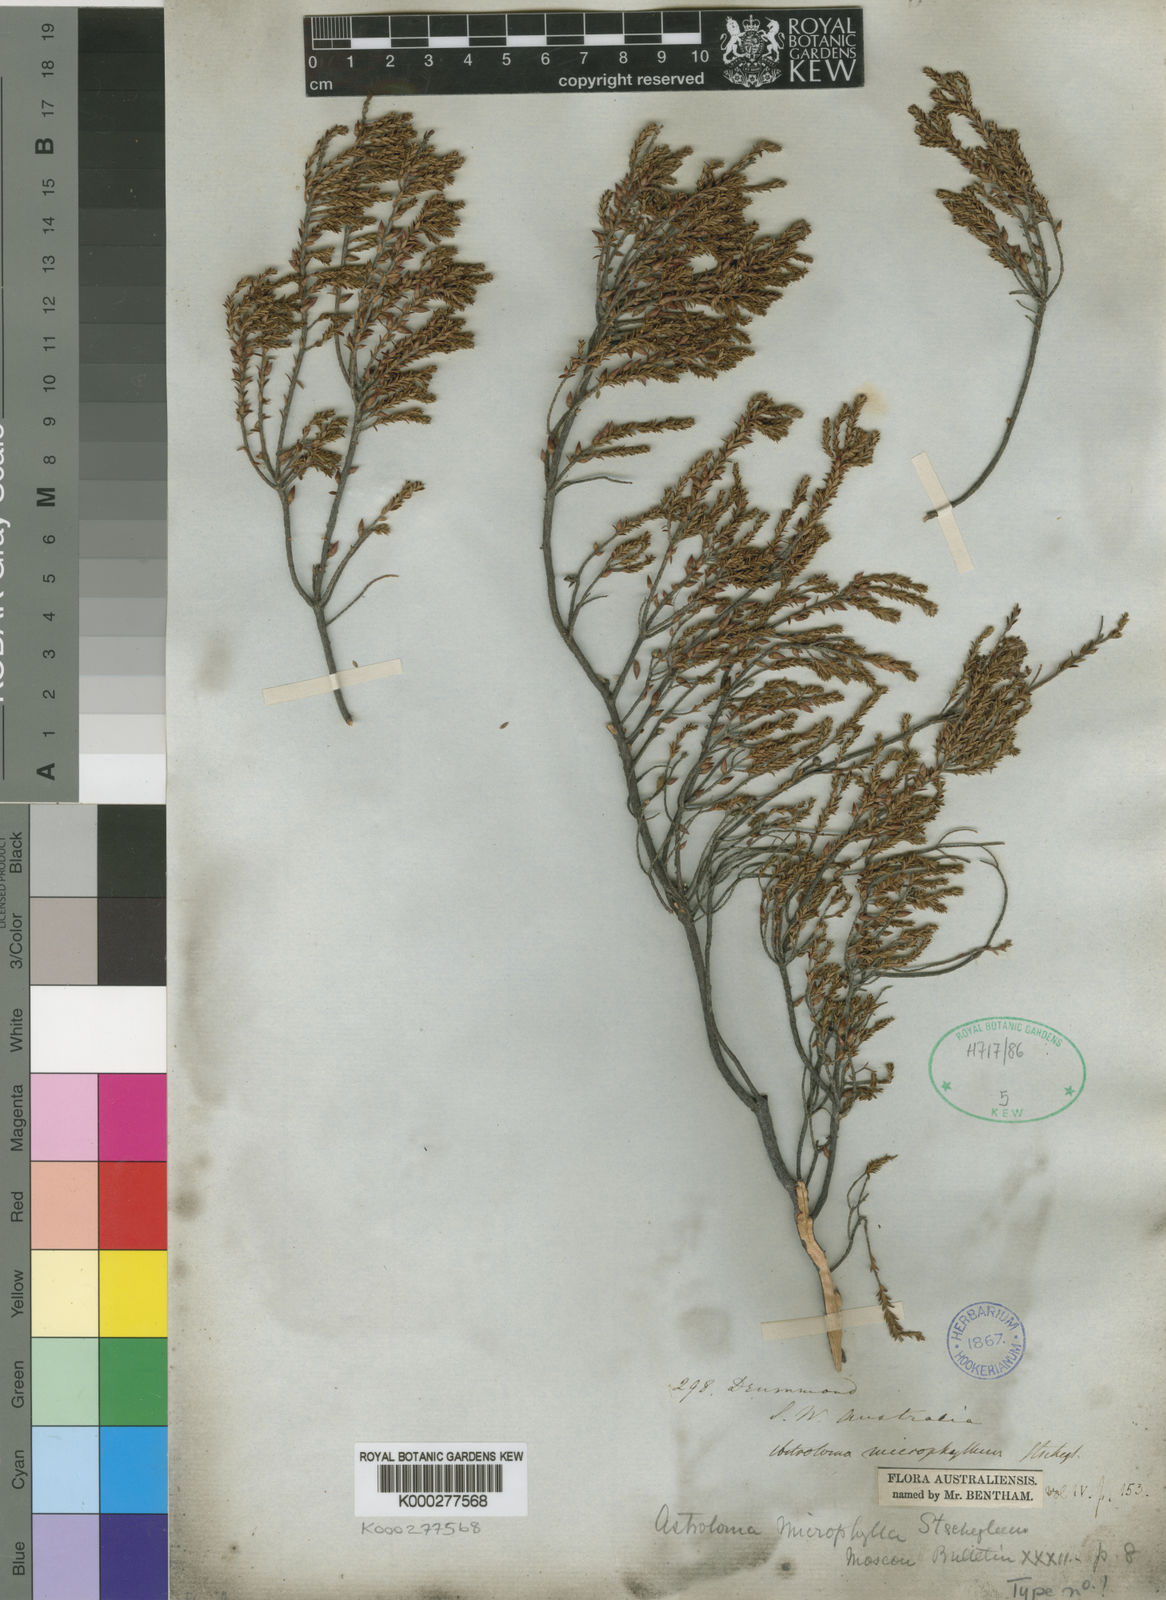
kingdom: Plantae
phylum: Tracheophyta
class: Magnoliopsida
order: Ericales
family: Ericaceae
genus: Styphelia
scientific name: Styphelia pentapogona
